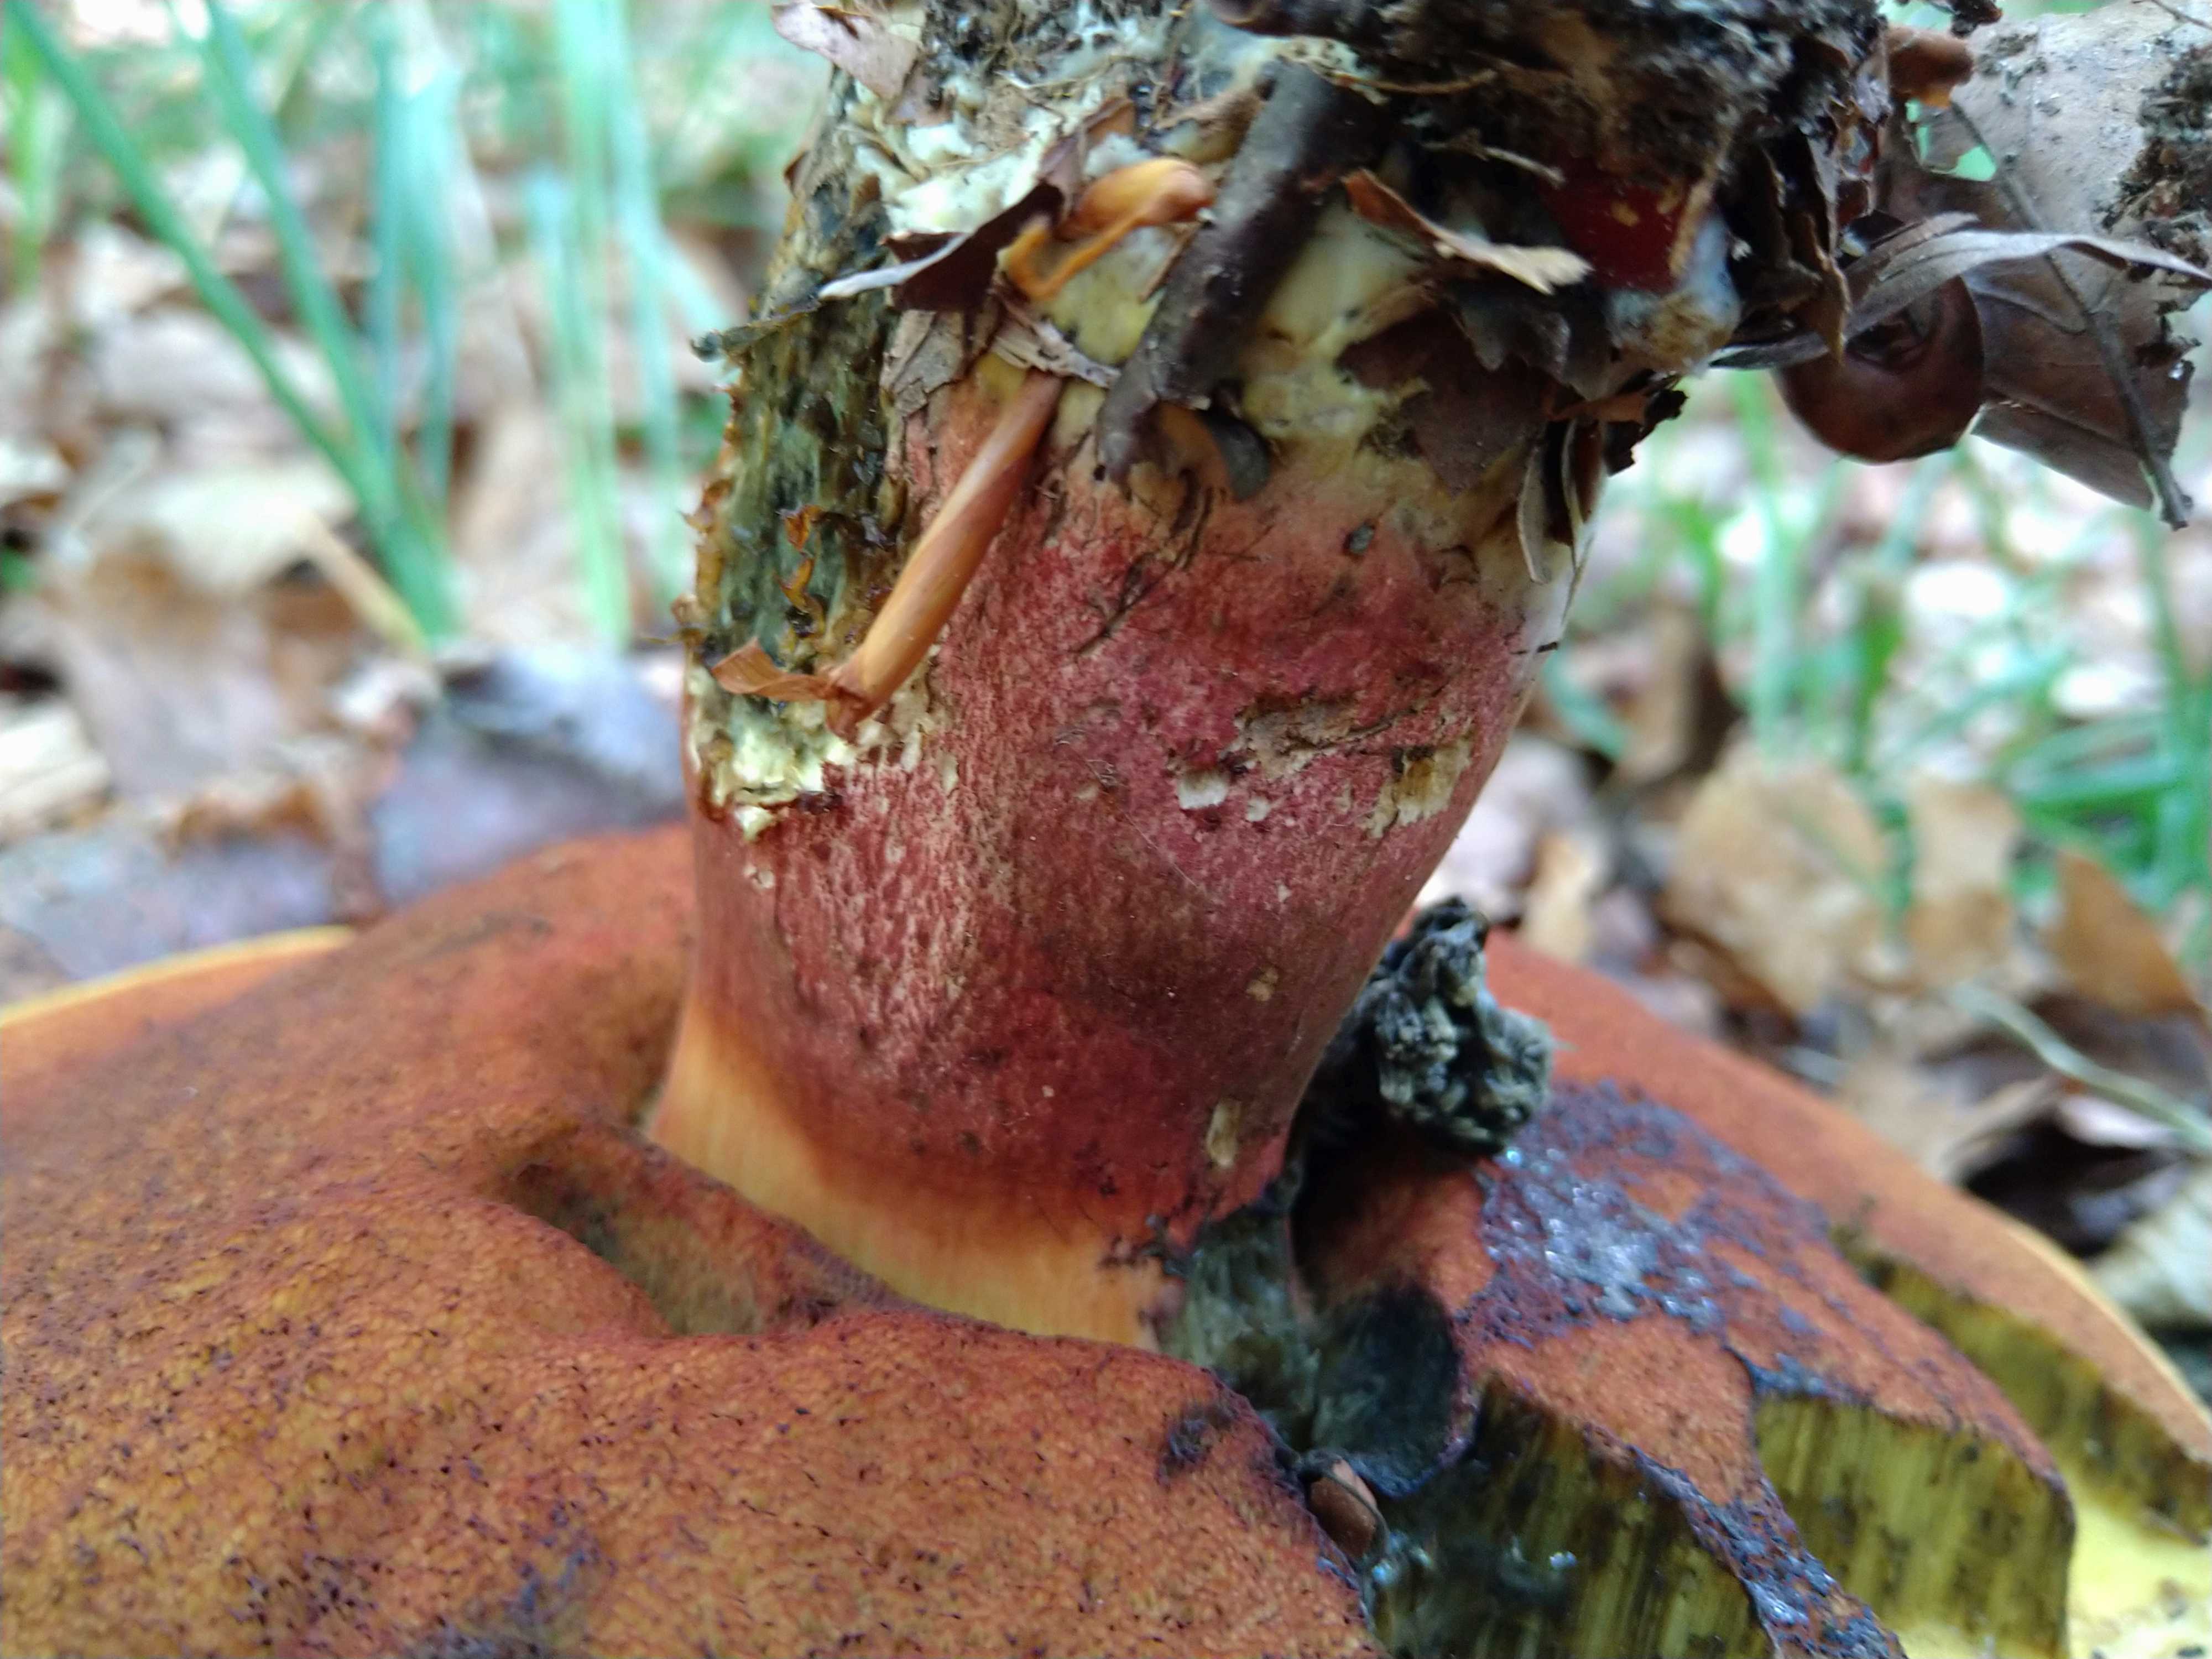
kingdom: Fungi
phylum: Basidiomycota
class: Agaricomycetes
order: Boletales
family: Boletaceae
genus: Neoboletus
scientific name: Neoboletus erythropus
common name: punktstokket indigorørhat
